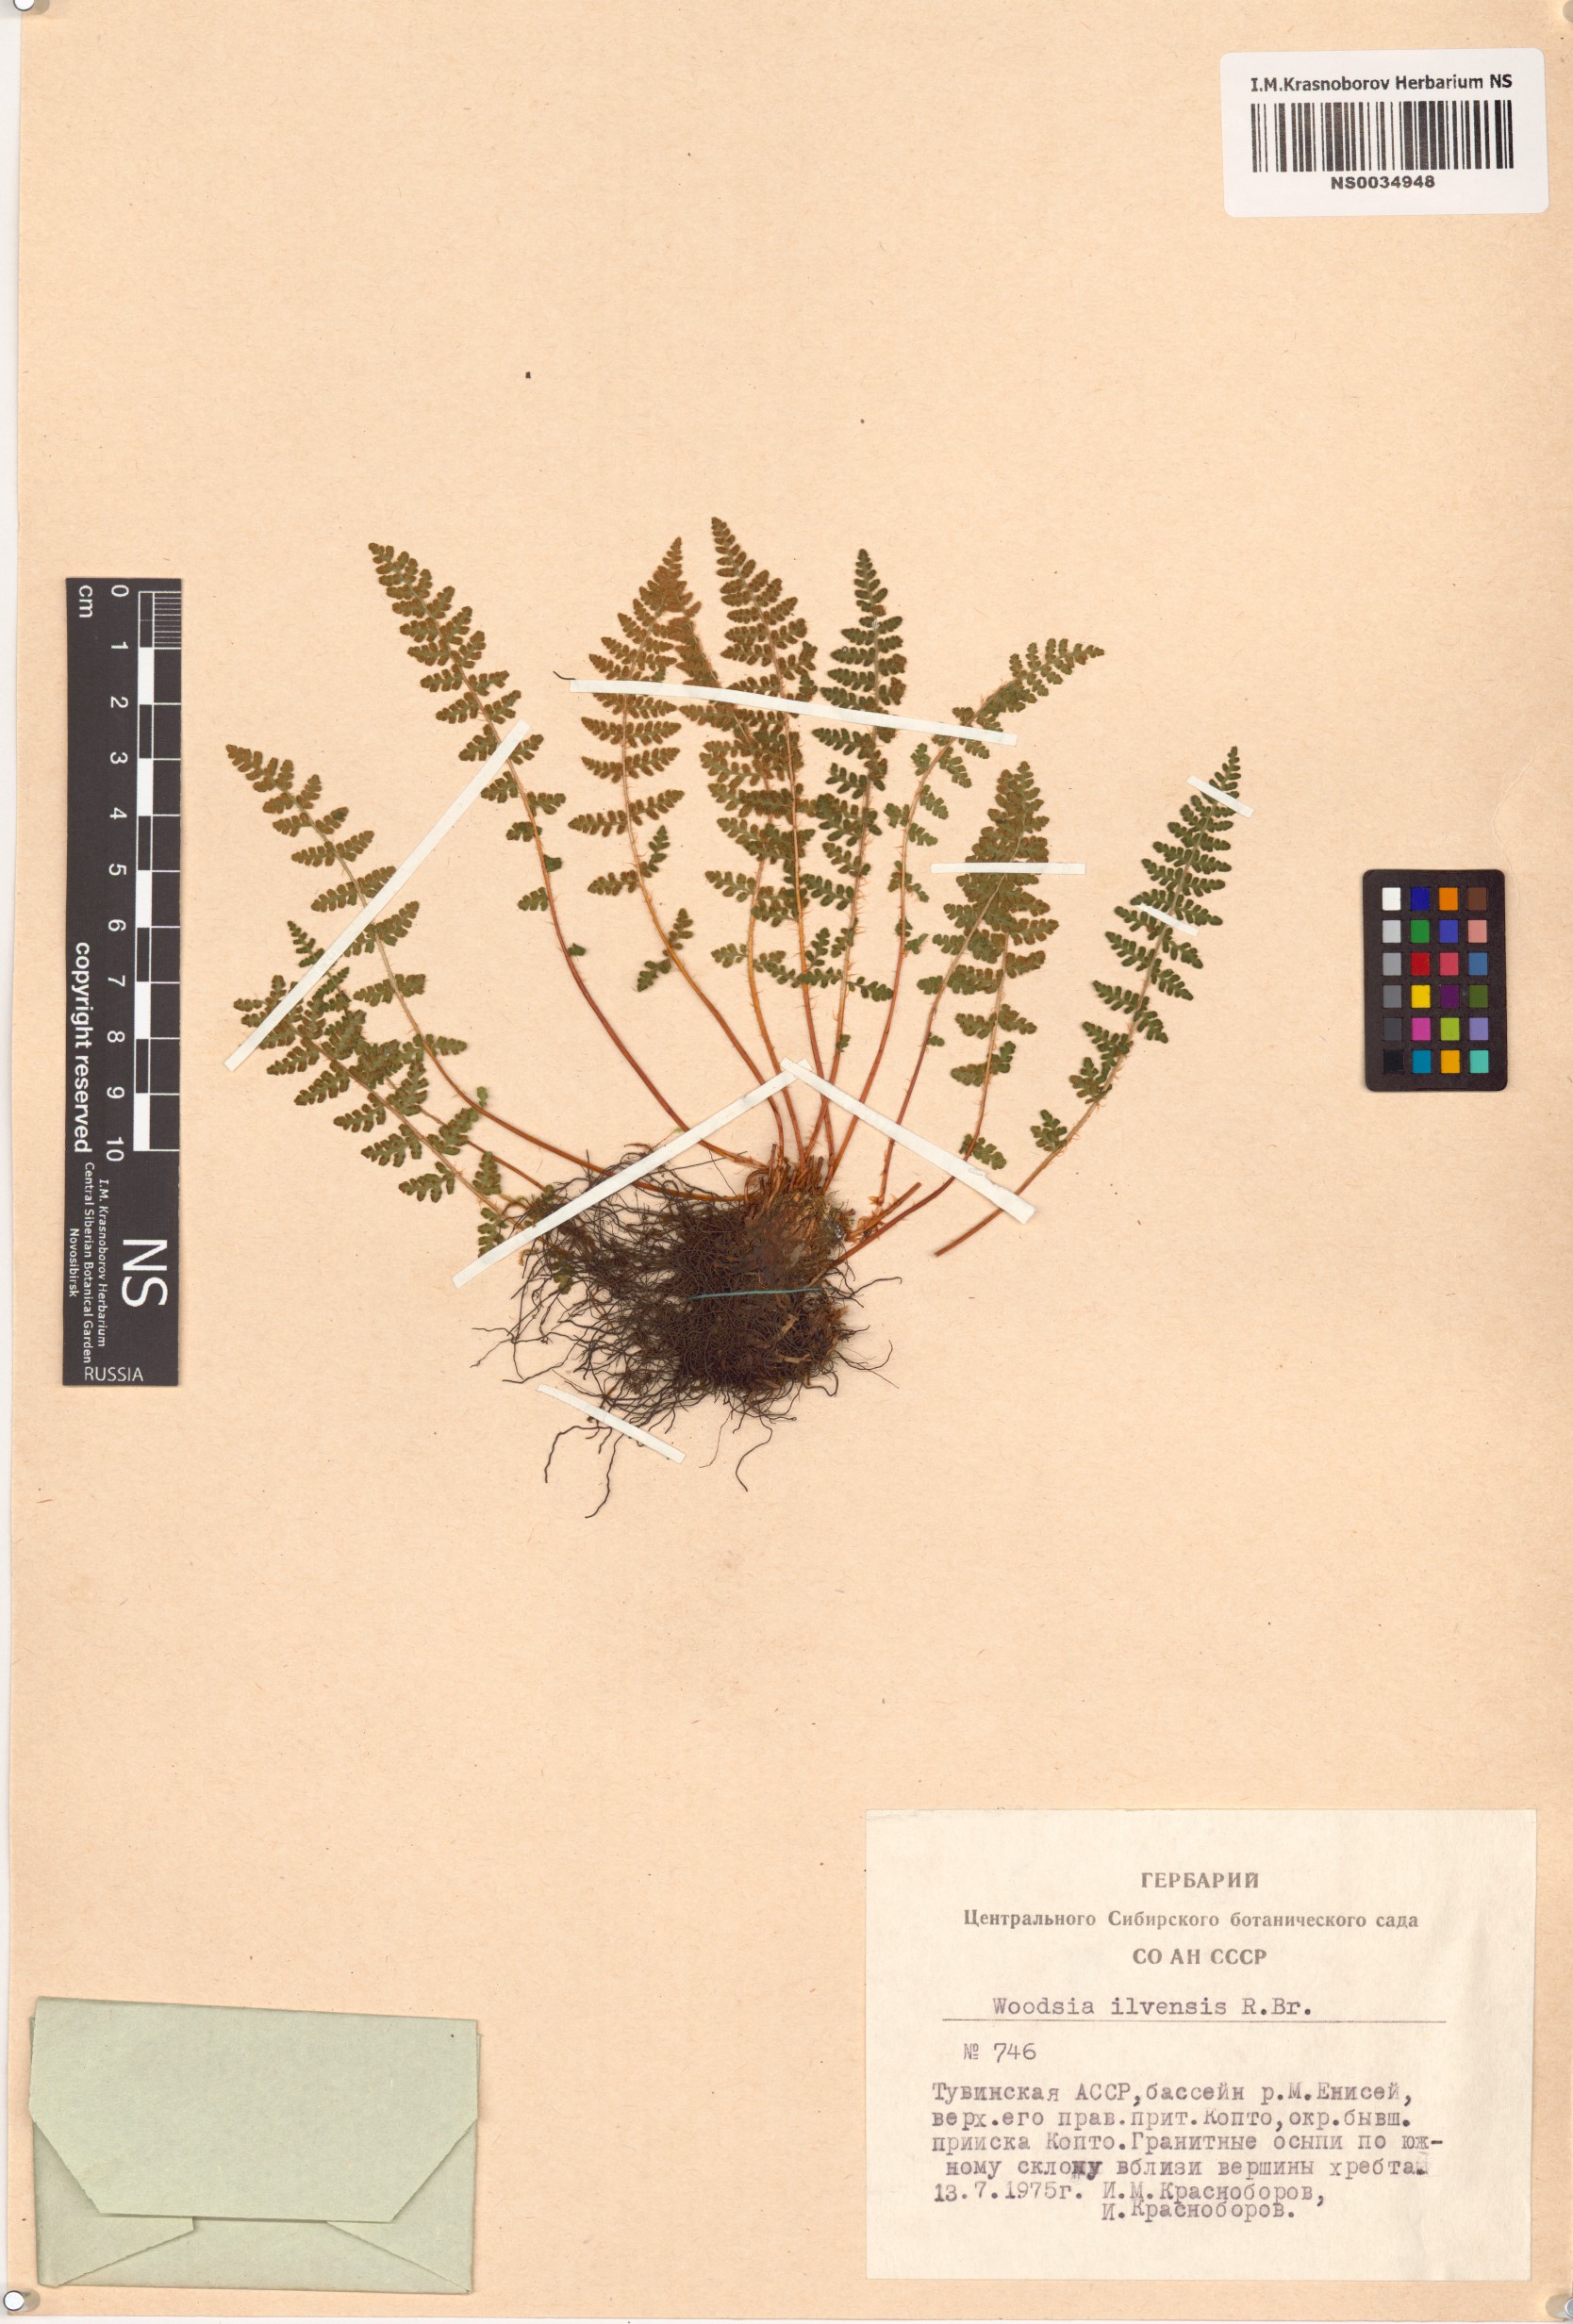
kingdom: Plantae
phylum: Tracheophyta
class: Polypodiopsida
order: Polypodiales
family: Woodsiaceae
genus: Woodsia
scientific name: Woodsia ilvensis
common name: Fragrant woodsia
